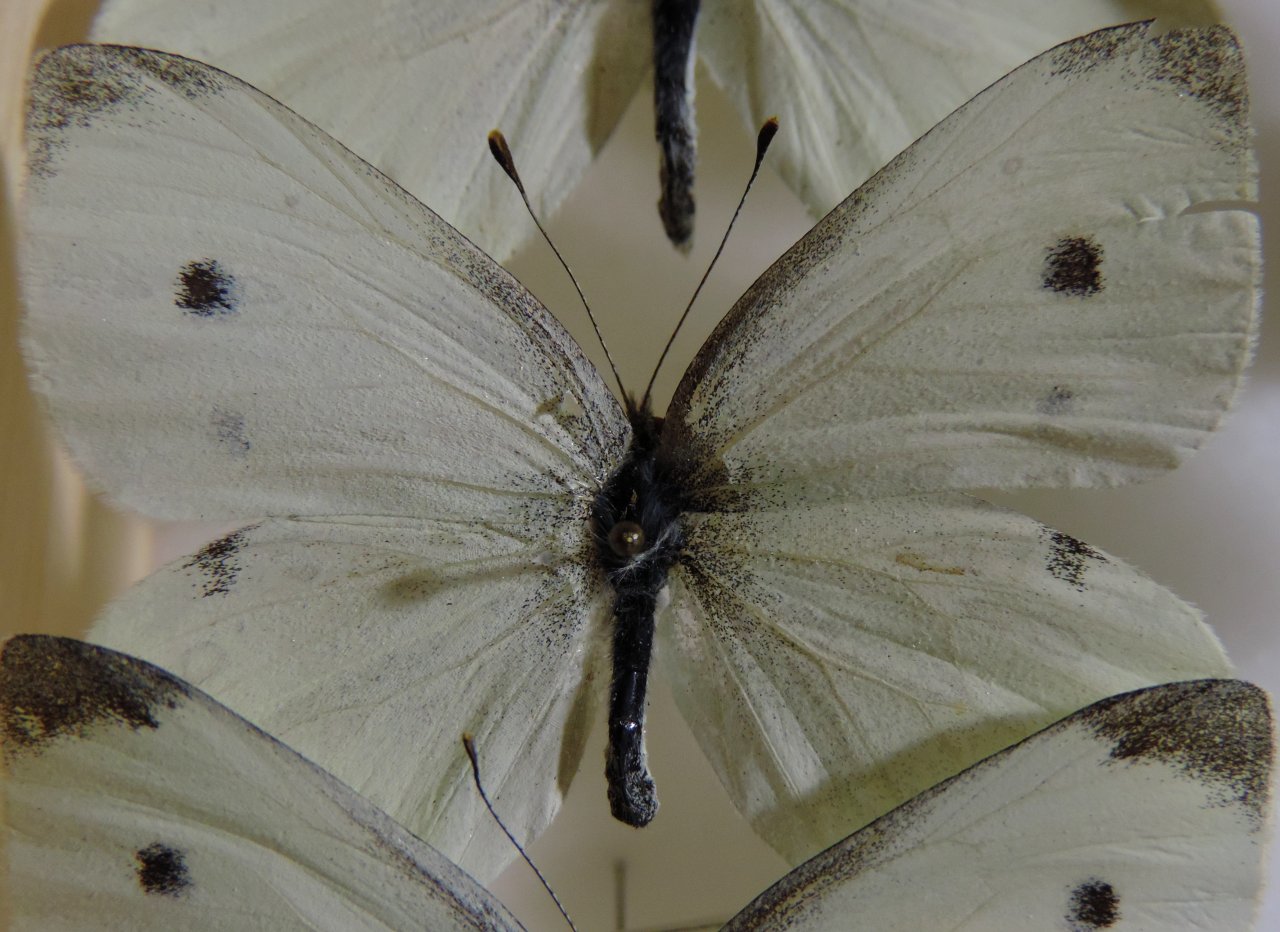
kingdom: Animalia
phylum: Arthropoda
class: Insecta
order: Lepidoptera
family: Pieridae
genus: Pieris
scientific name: Pieris rapae
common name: Cabbage White
